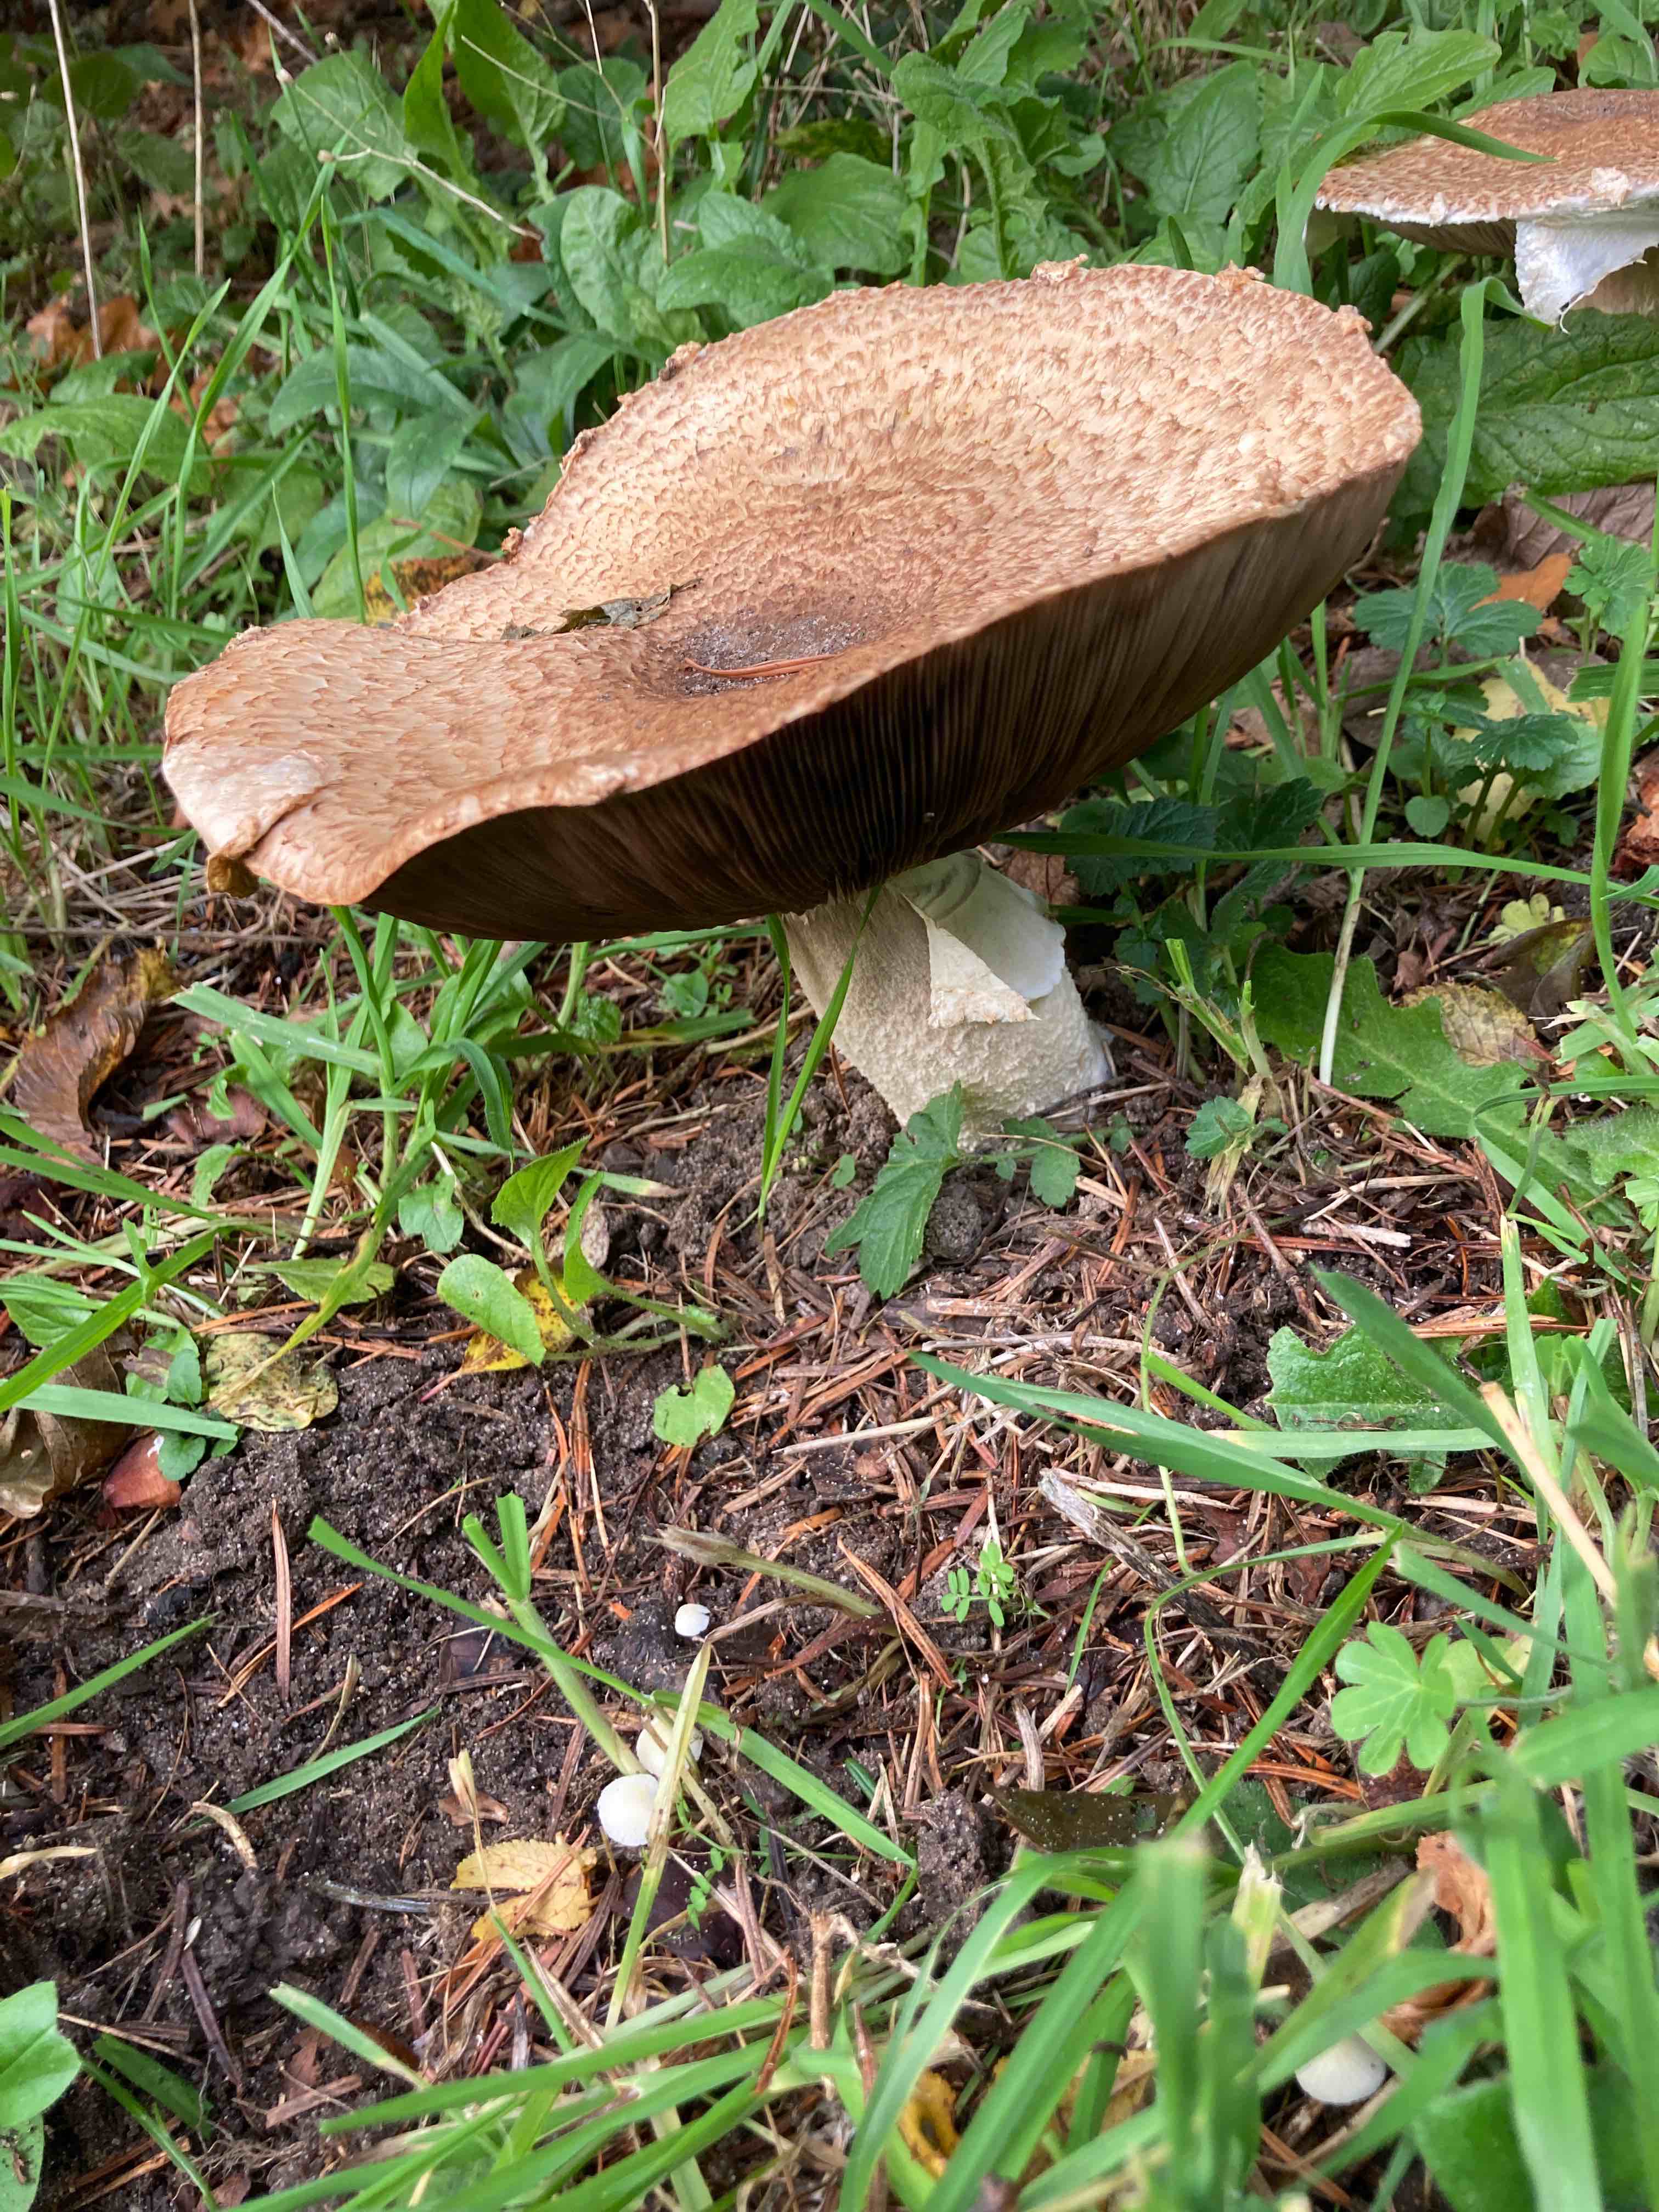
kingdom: Fungi
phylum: Basidiomycota
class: Agaricomycetes
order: Agaricales
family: Agaricaceae
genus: Agaricus
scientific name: Agaricus augustus
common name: prægtig champignon
